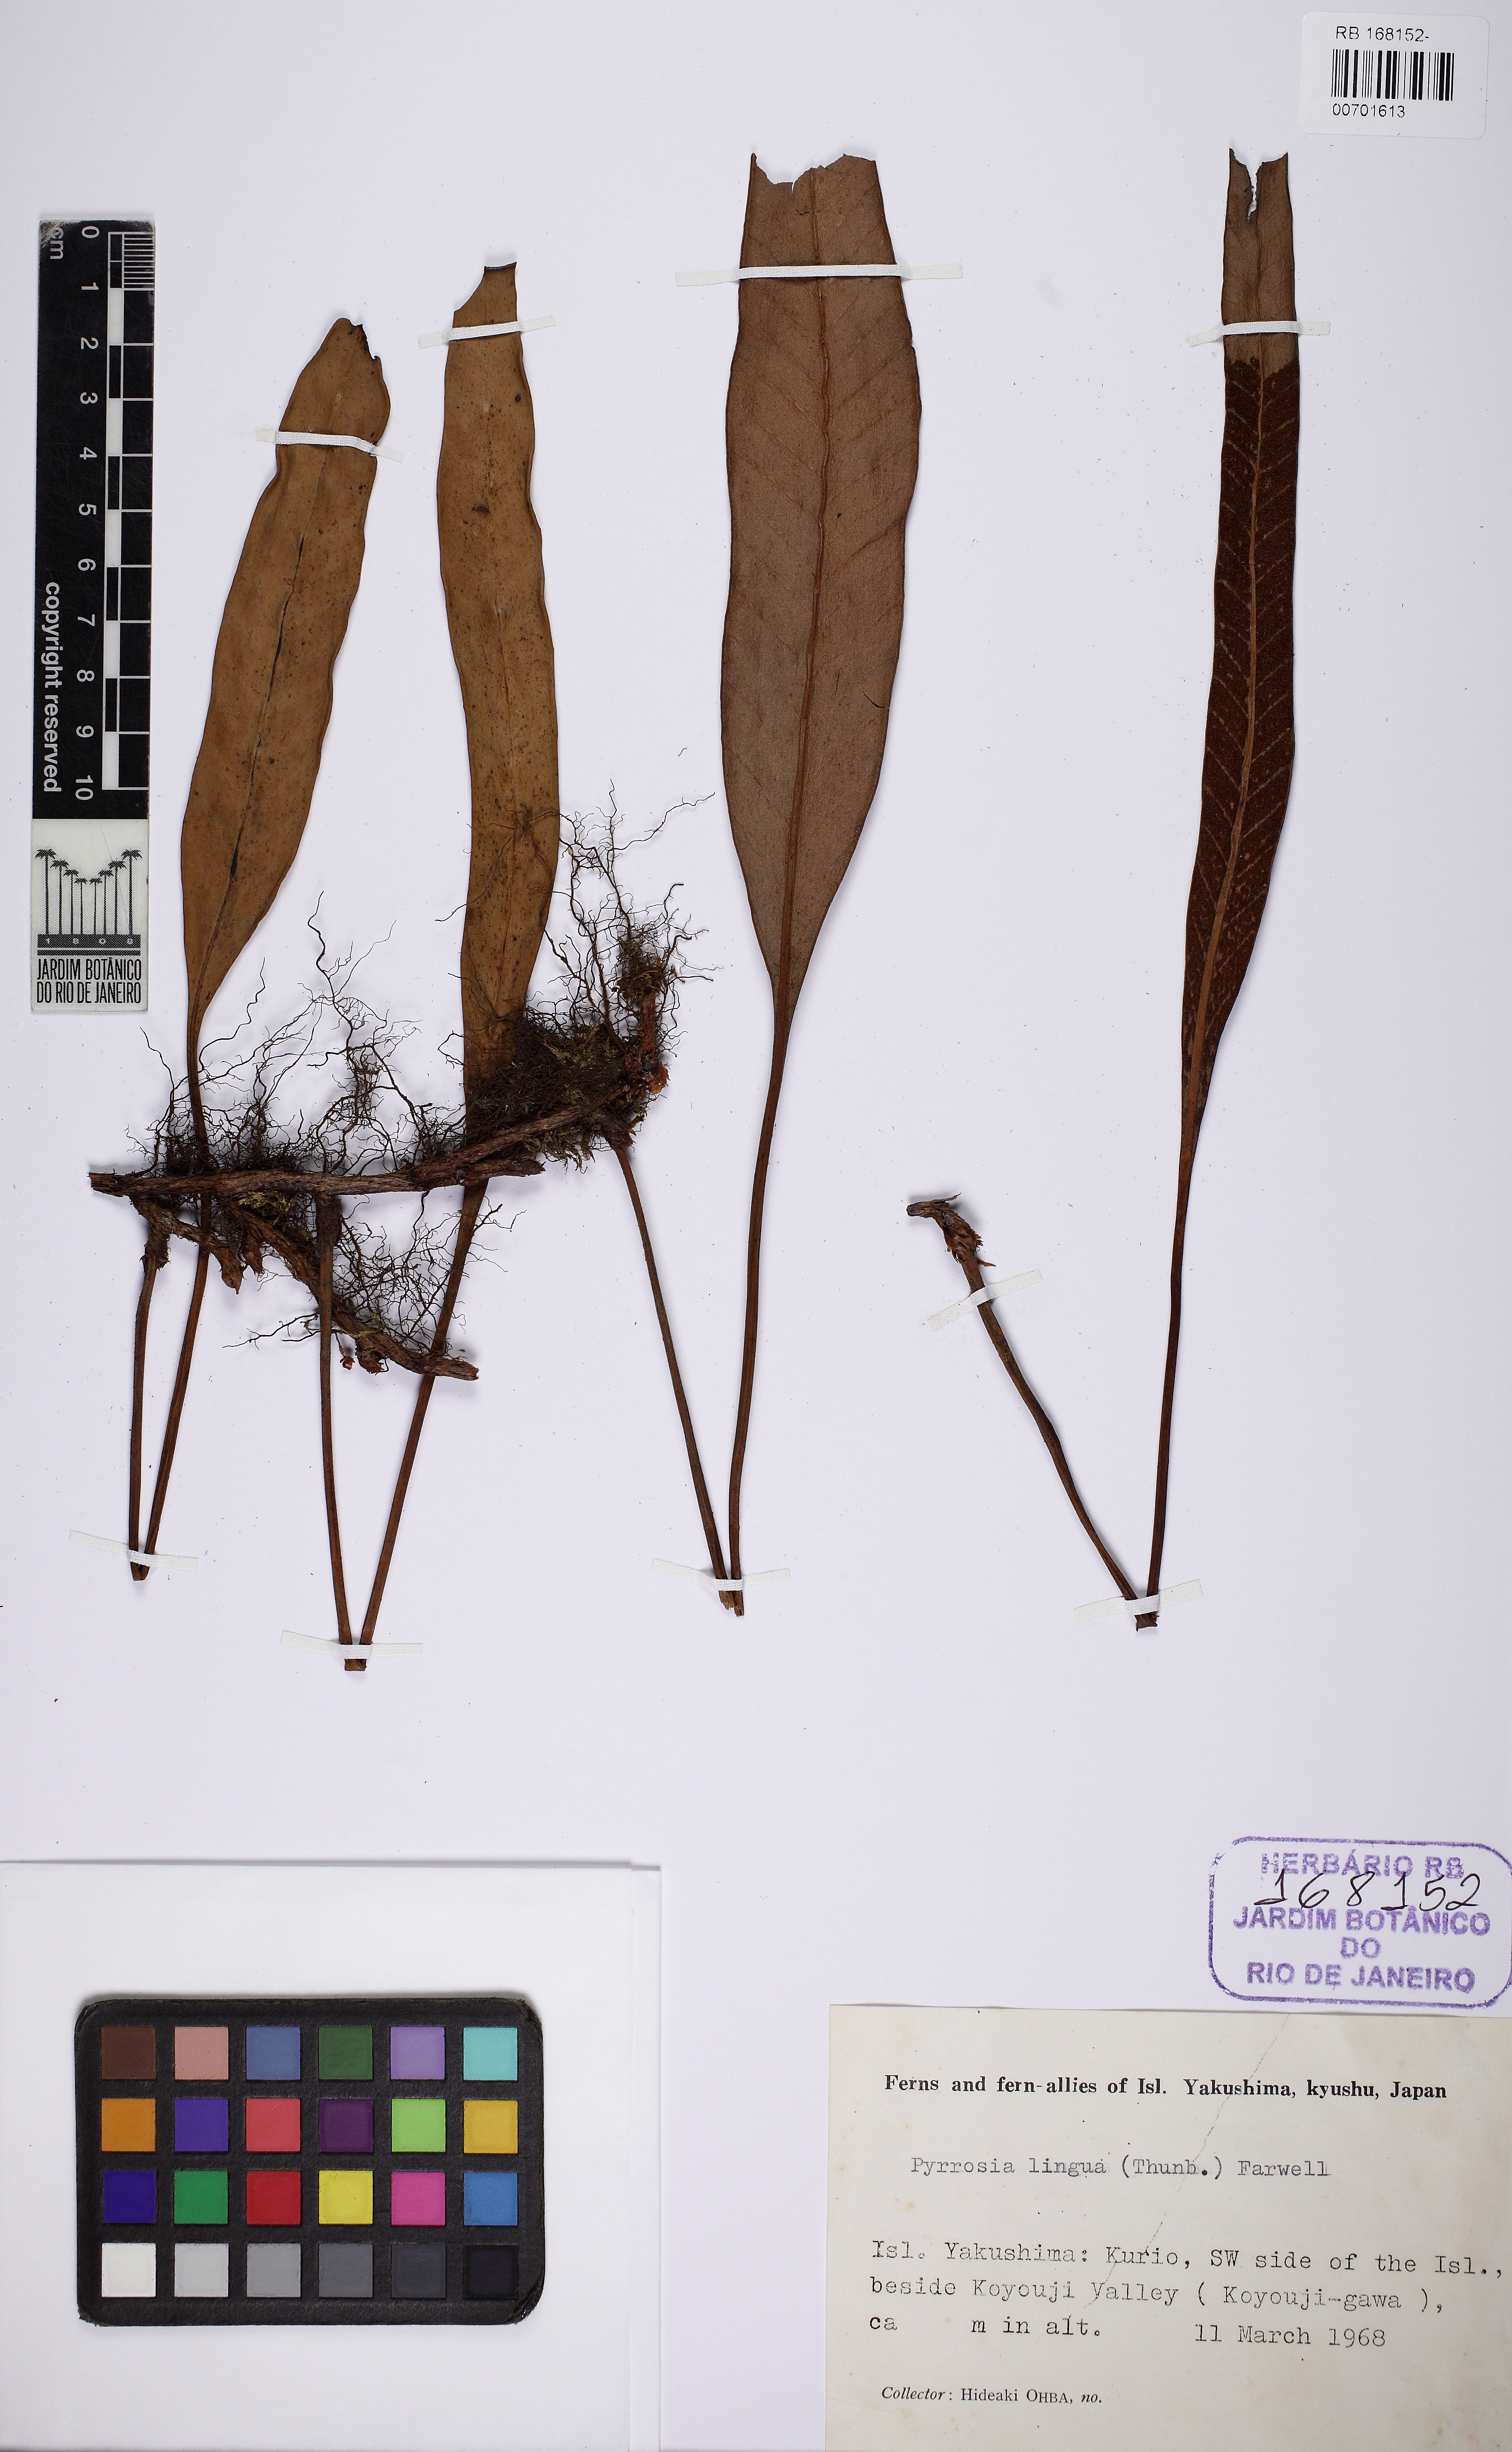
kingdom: Plantae
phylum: Tracheophyta
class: Polypodiopsida
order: Polypodiales
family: Polypodiaceae
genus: Pyrrosia
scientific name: Pyrrosia lingua
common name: Felt fern
